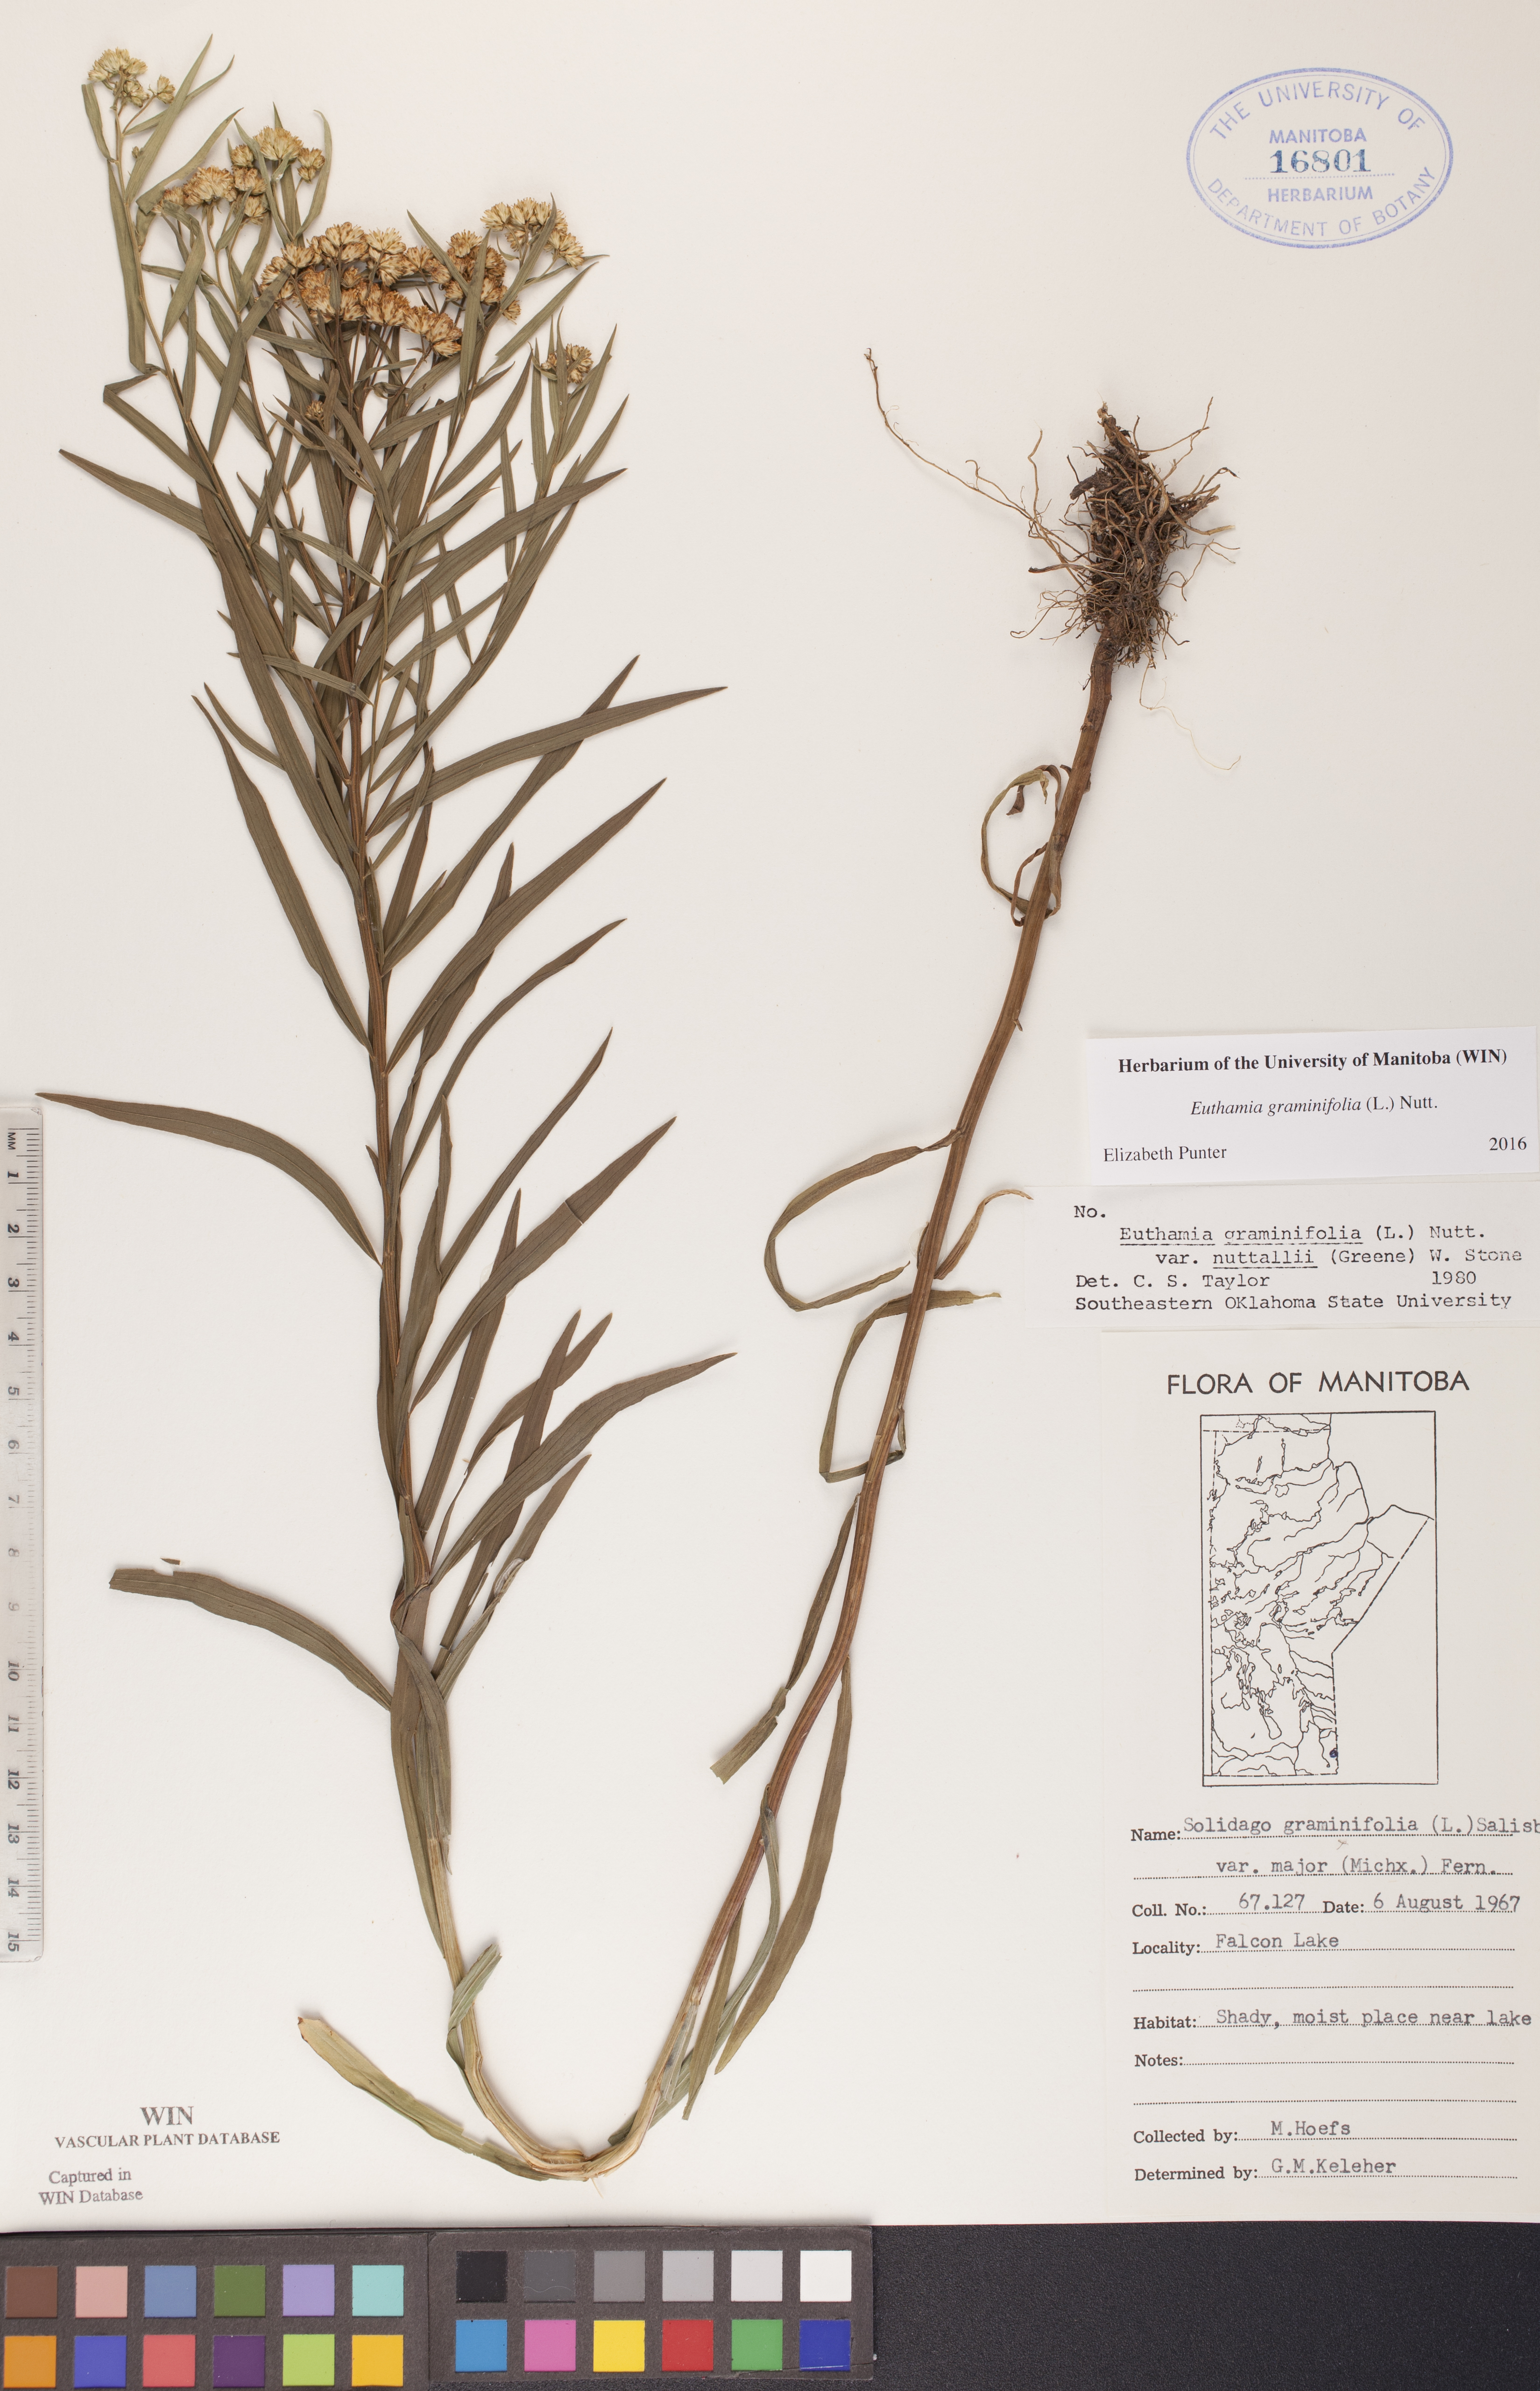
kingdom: Plantae
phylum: Tracheophyta
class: Magnoliopsida
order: Asterales
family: Asteraceae
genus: Euthamia
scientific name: Euthamia graminifolia
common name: Common goldentop
